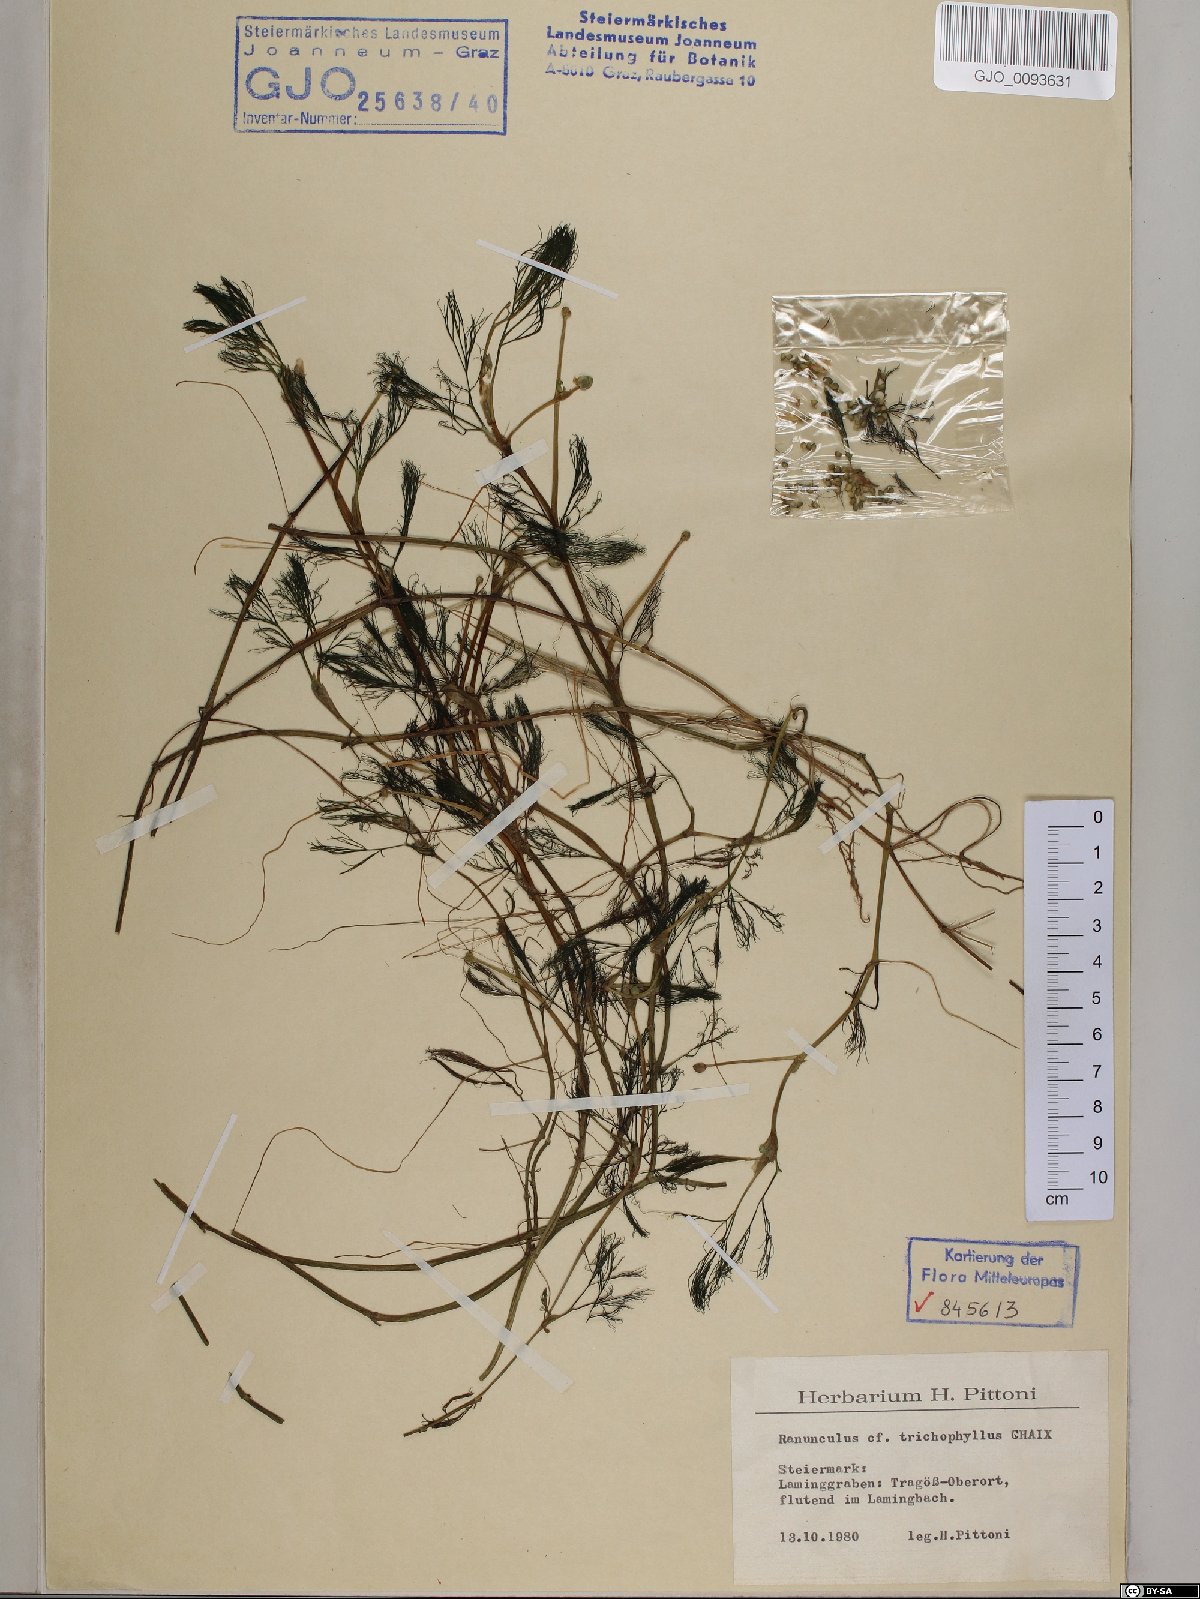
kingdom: Plantae
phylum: Tracheophyta
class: Magnoliopsida
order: Ranunculales
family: Ranunculaceae
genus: Ranunculus
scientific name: Ranunculus trichophyllus
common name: Thread-leaved water-crowfoot
